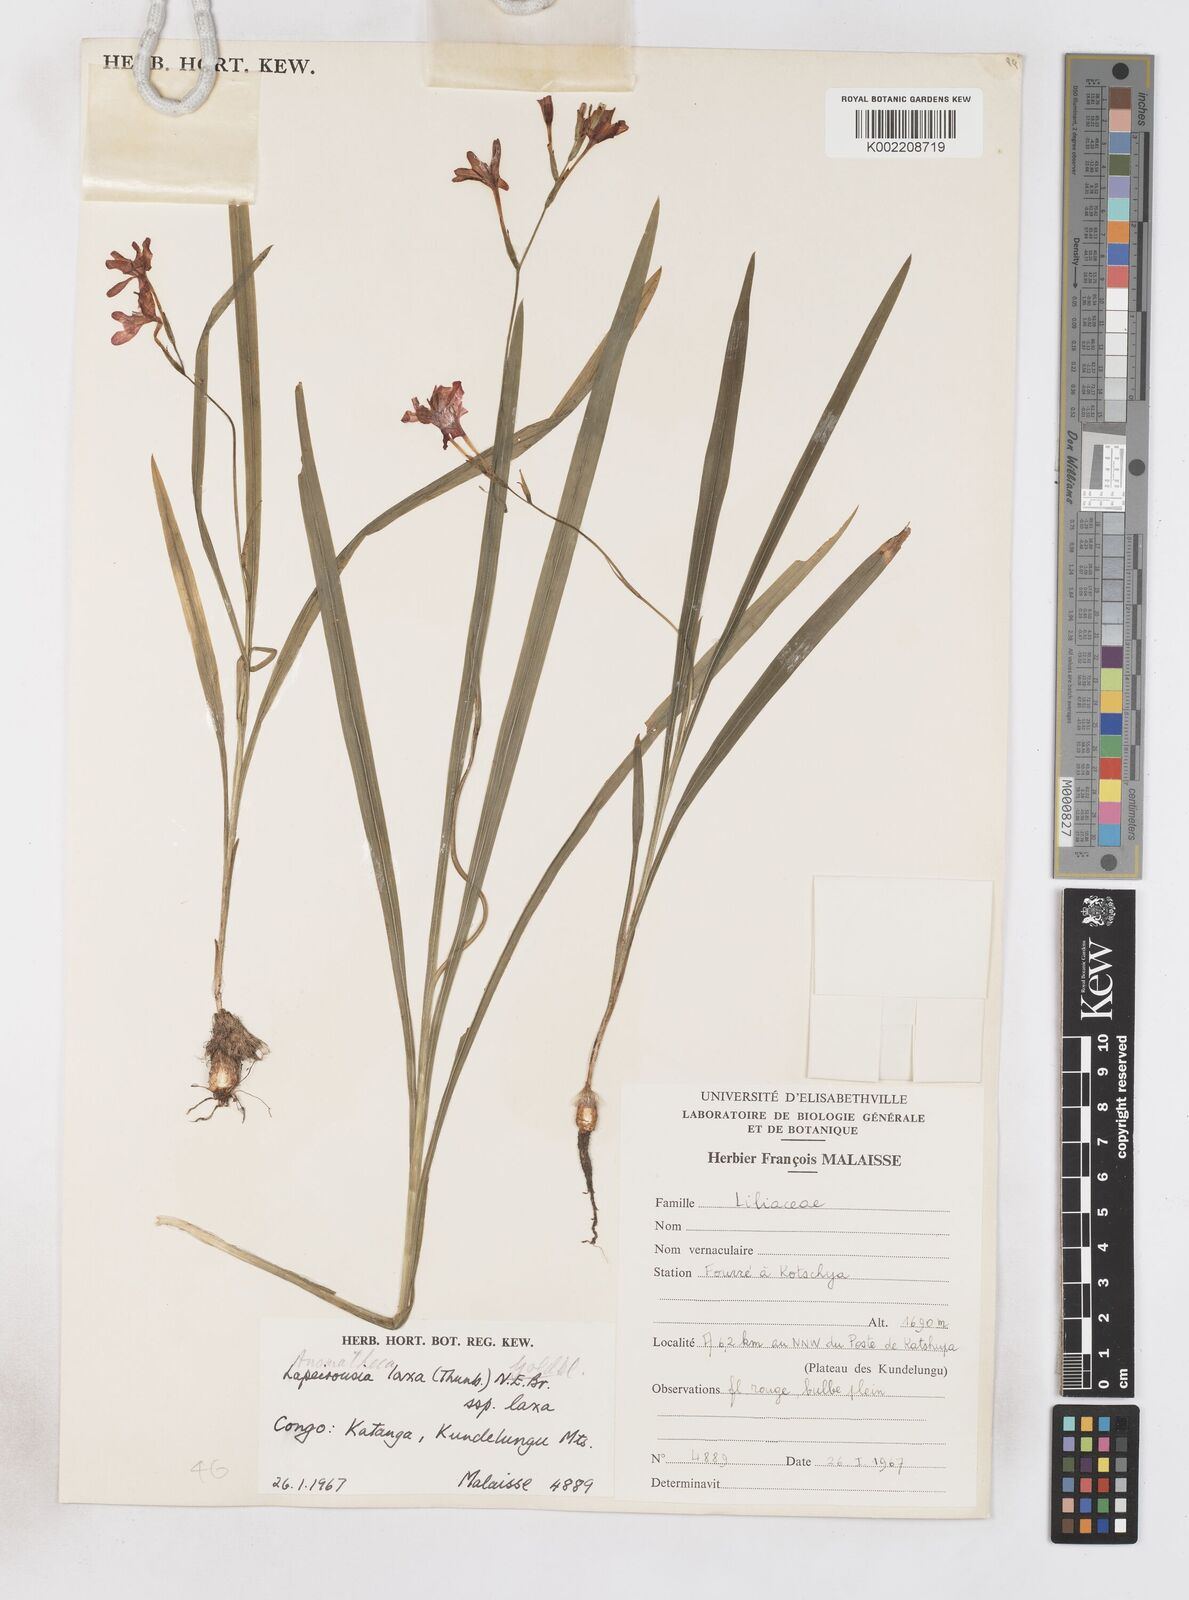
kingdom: Plantae
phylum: Tracheophyta
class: Liliopsida
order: Asparagales
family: Iridaceae
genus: Freesia
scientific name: Freesia laxa
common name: False freesia
